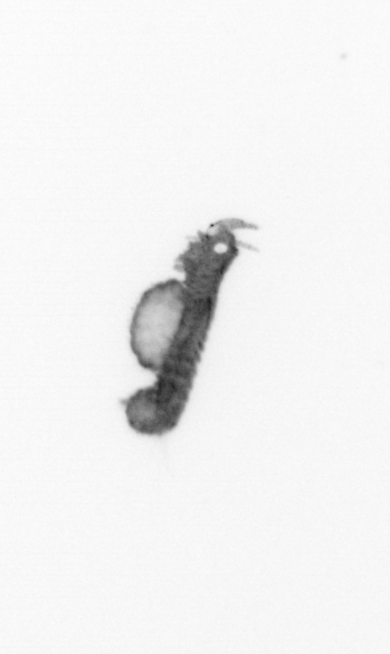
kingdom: Animalia
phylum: Annelida
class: Polychaeta
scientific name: Polychaeta
